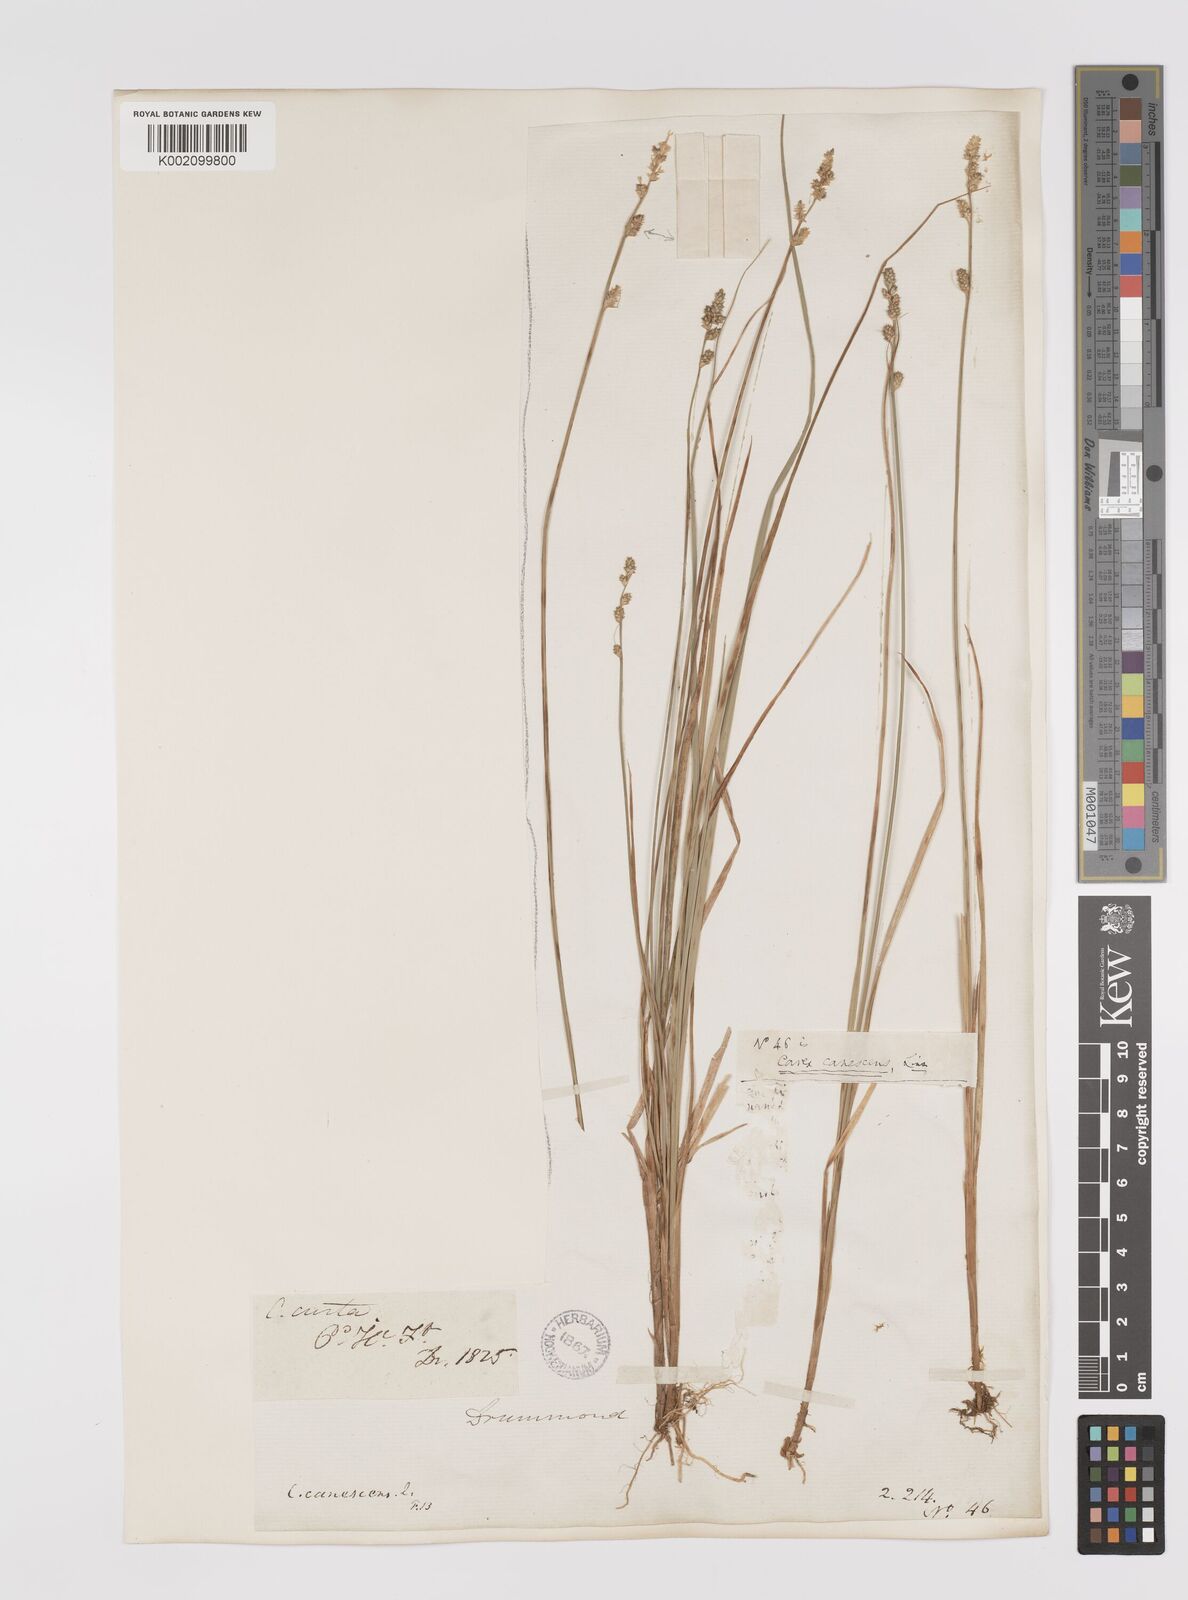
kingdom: Plantae
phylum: Tracheophyta
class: Liliopsida
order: Poales
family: Cyperaceae
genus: Carex
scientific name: Carex curta
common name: White sedge
